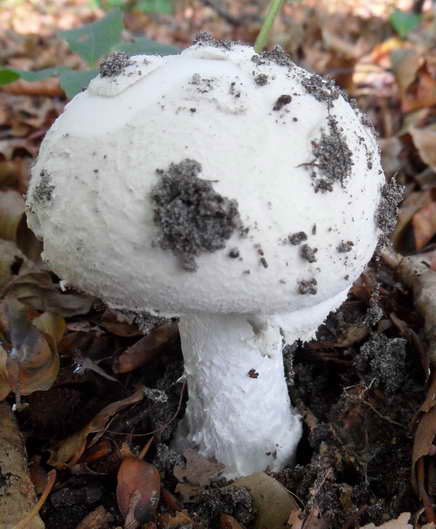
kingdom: Fungi
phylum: Basidiomycota
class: Agaricomycetes
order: Agaricales
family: Amanitaceae
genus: Amanita
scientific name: Amanita
